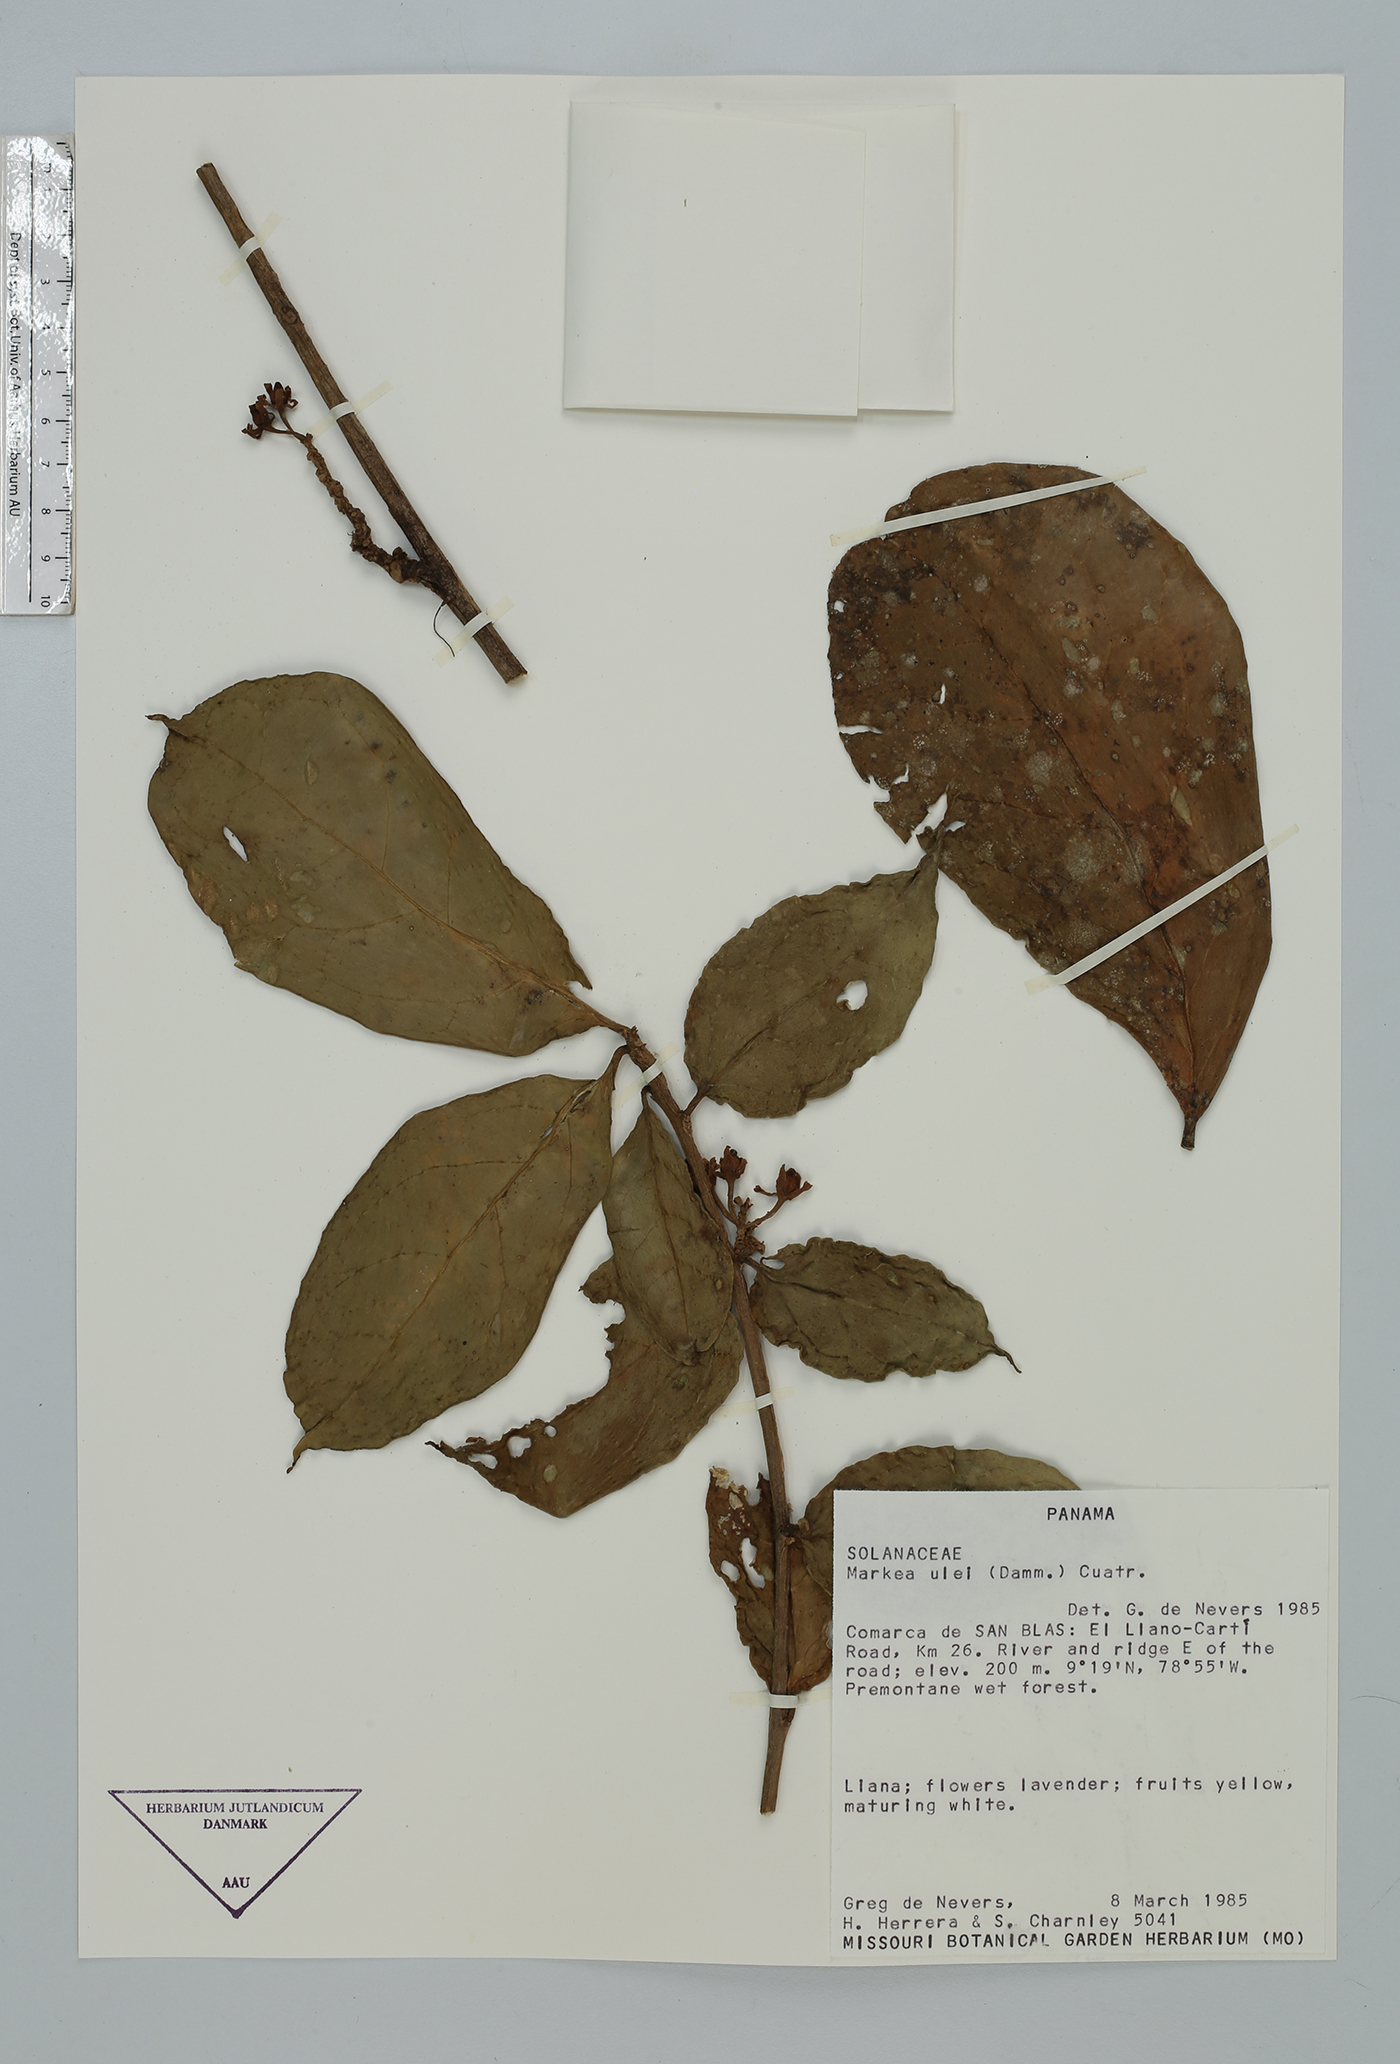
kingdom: Plantae
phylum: Tracheophyta
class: Magnoliopsida
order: Solanales
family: Solanaceae
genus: Hawkesiophyton
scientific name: Hawkesiophyton ulei
